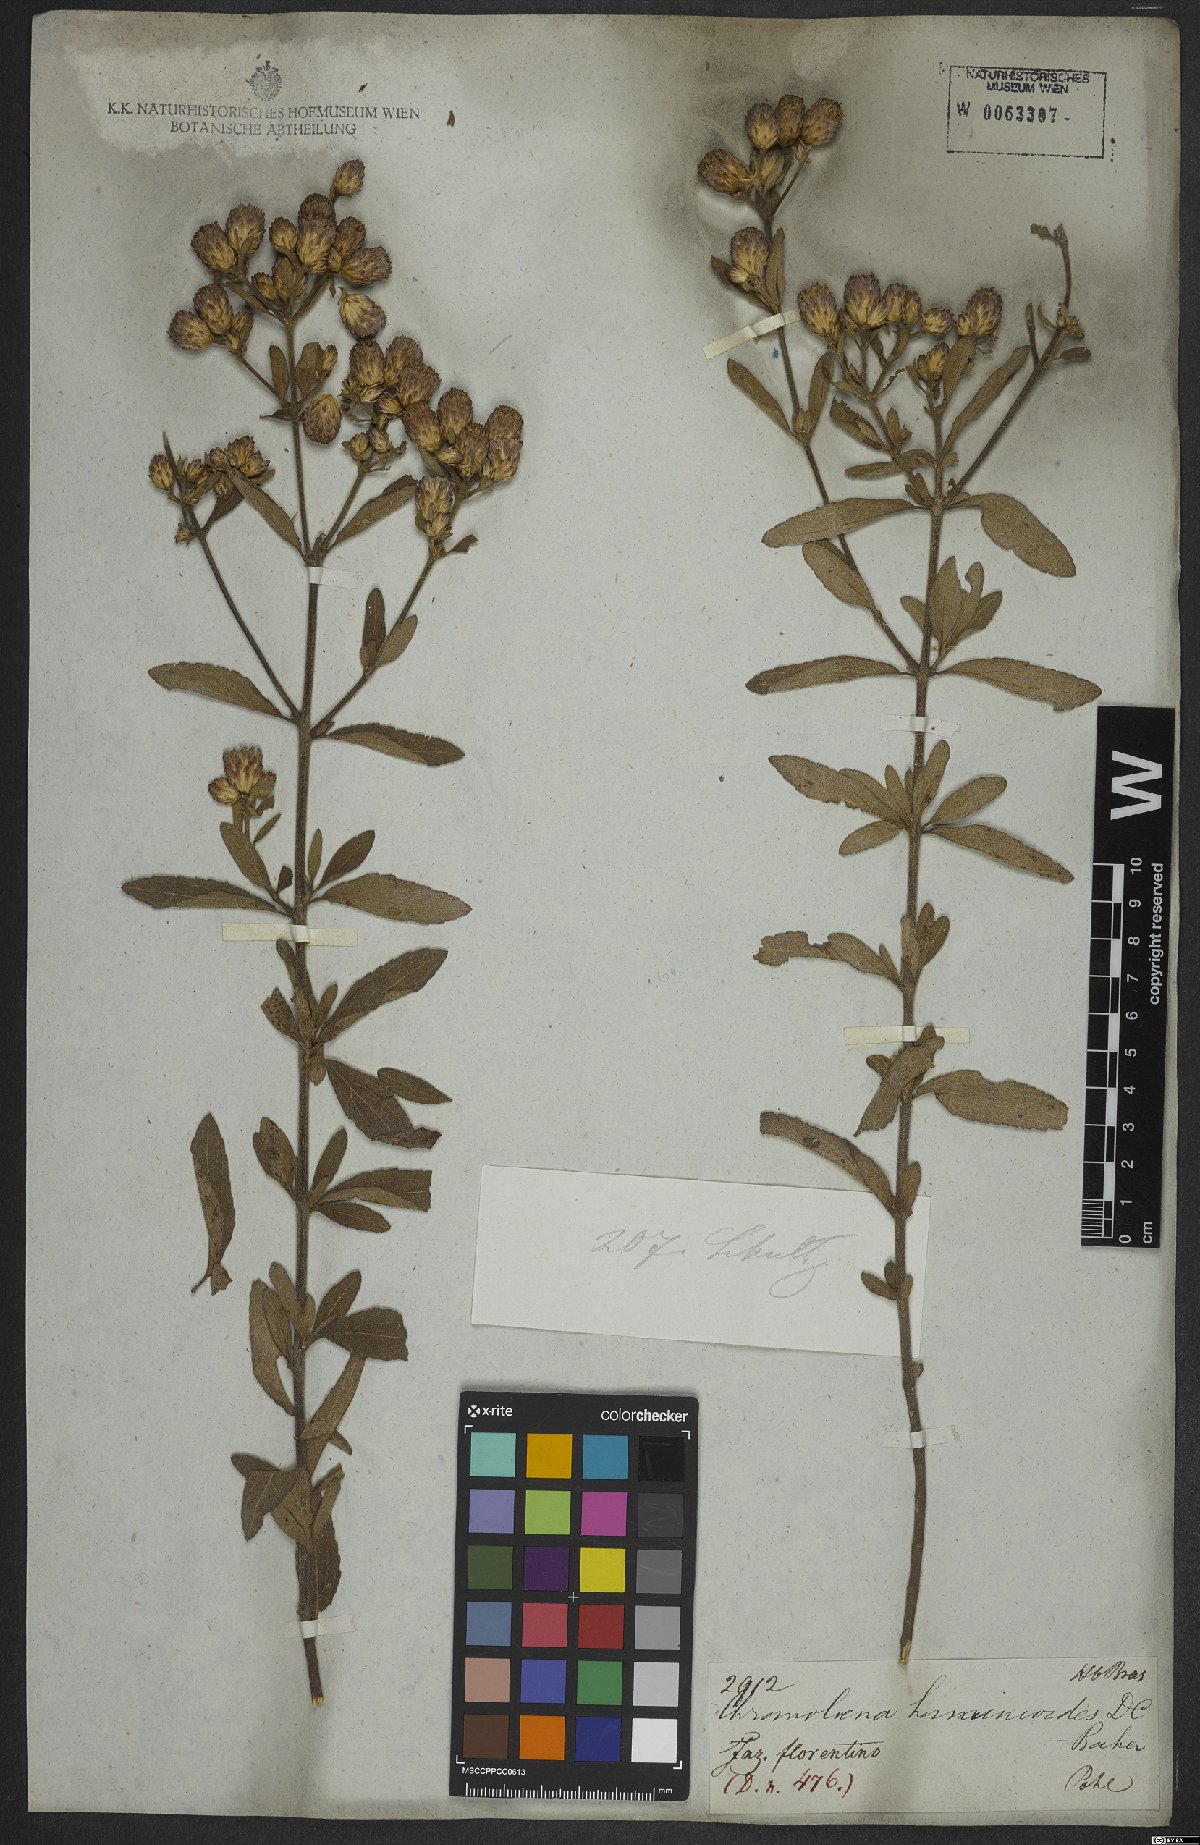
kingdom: Plantae
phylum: Tracheophyta
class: Magnoliopsida
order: Asterales
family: Asteraceae
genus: Chromolaena
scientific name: Chromolaena horminoides
